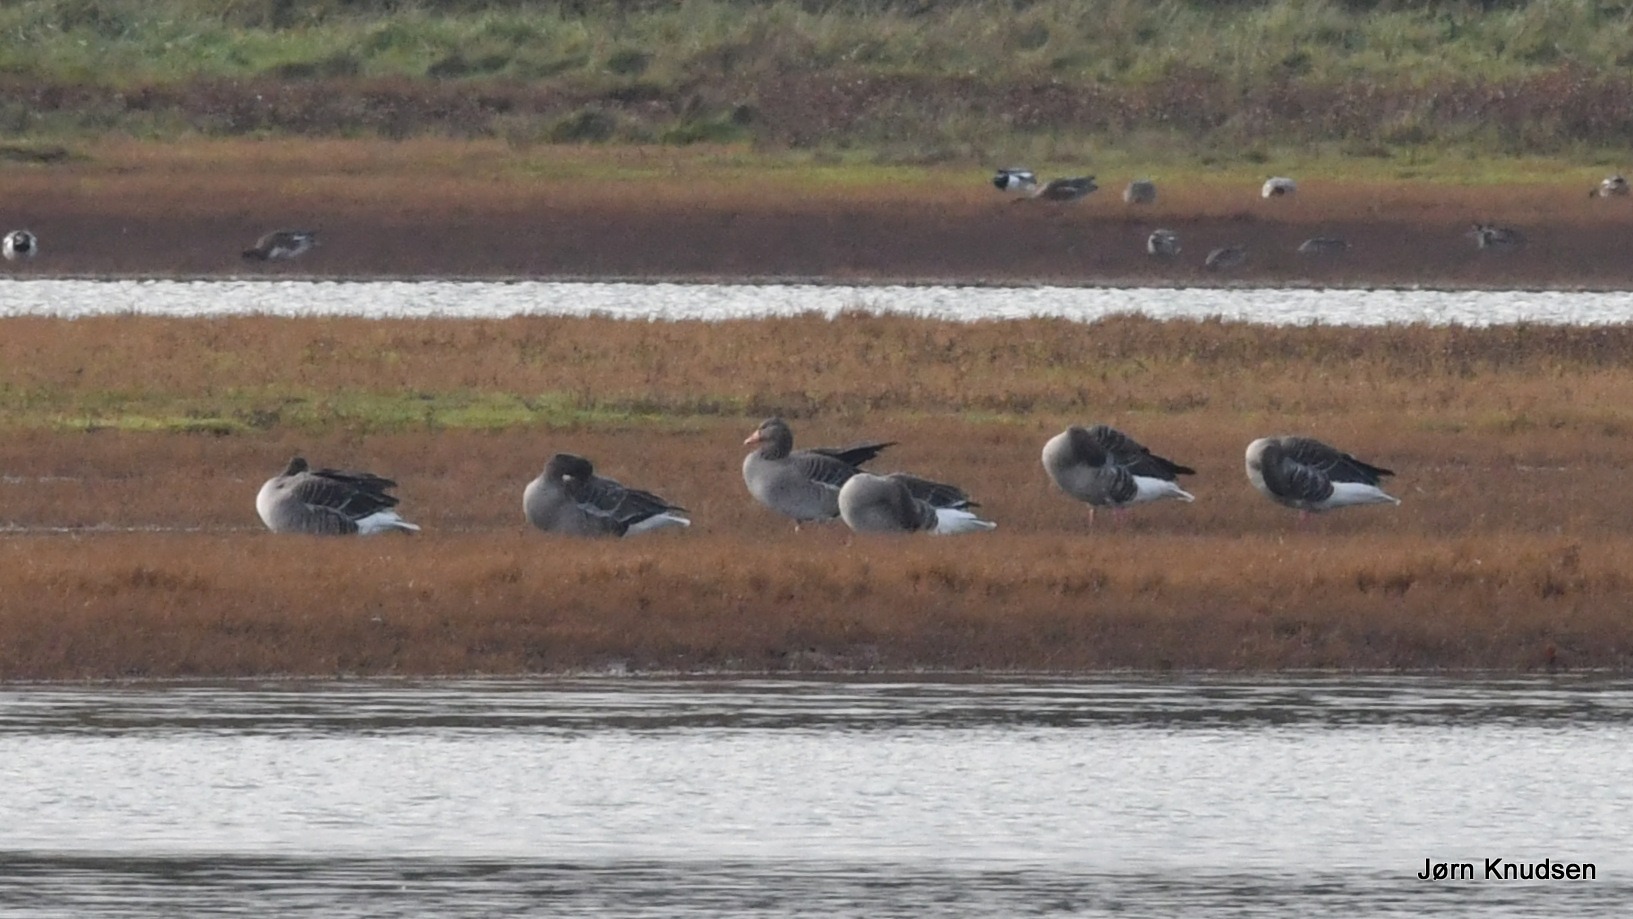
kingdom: Animalia
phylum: Chordata
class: Aves
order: Anseriformes
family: Anatidae
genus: Anser
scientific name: Anser anser
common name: Grågås
